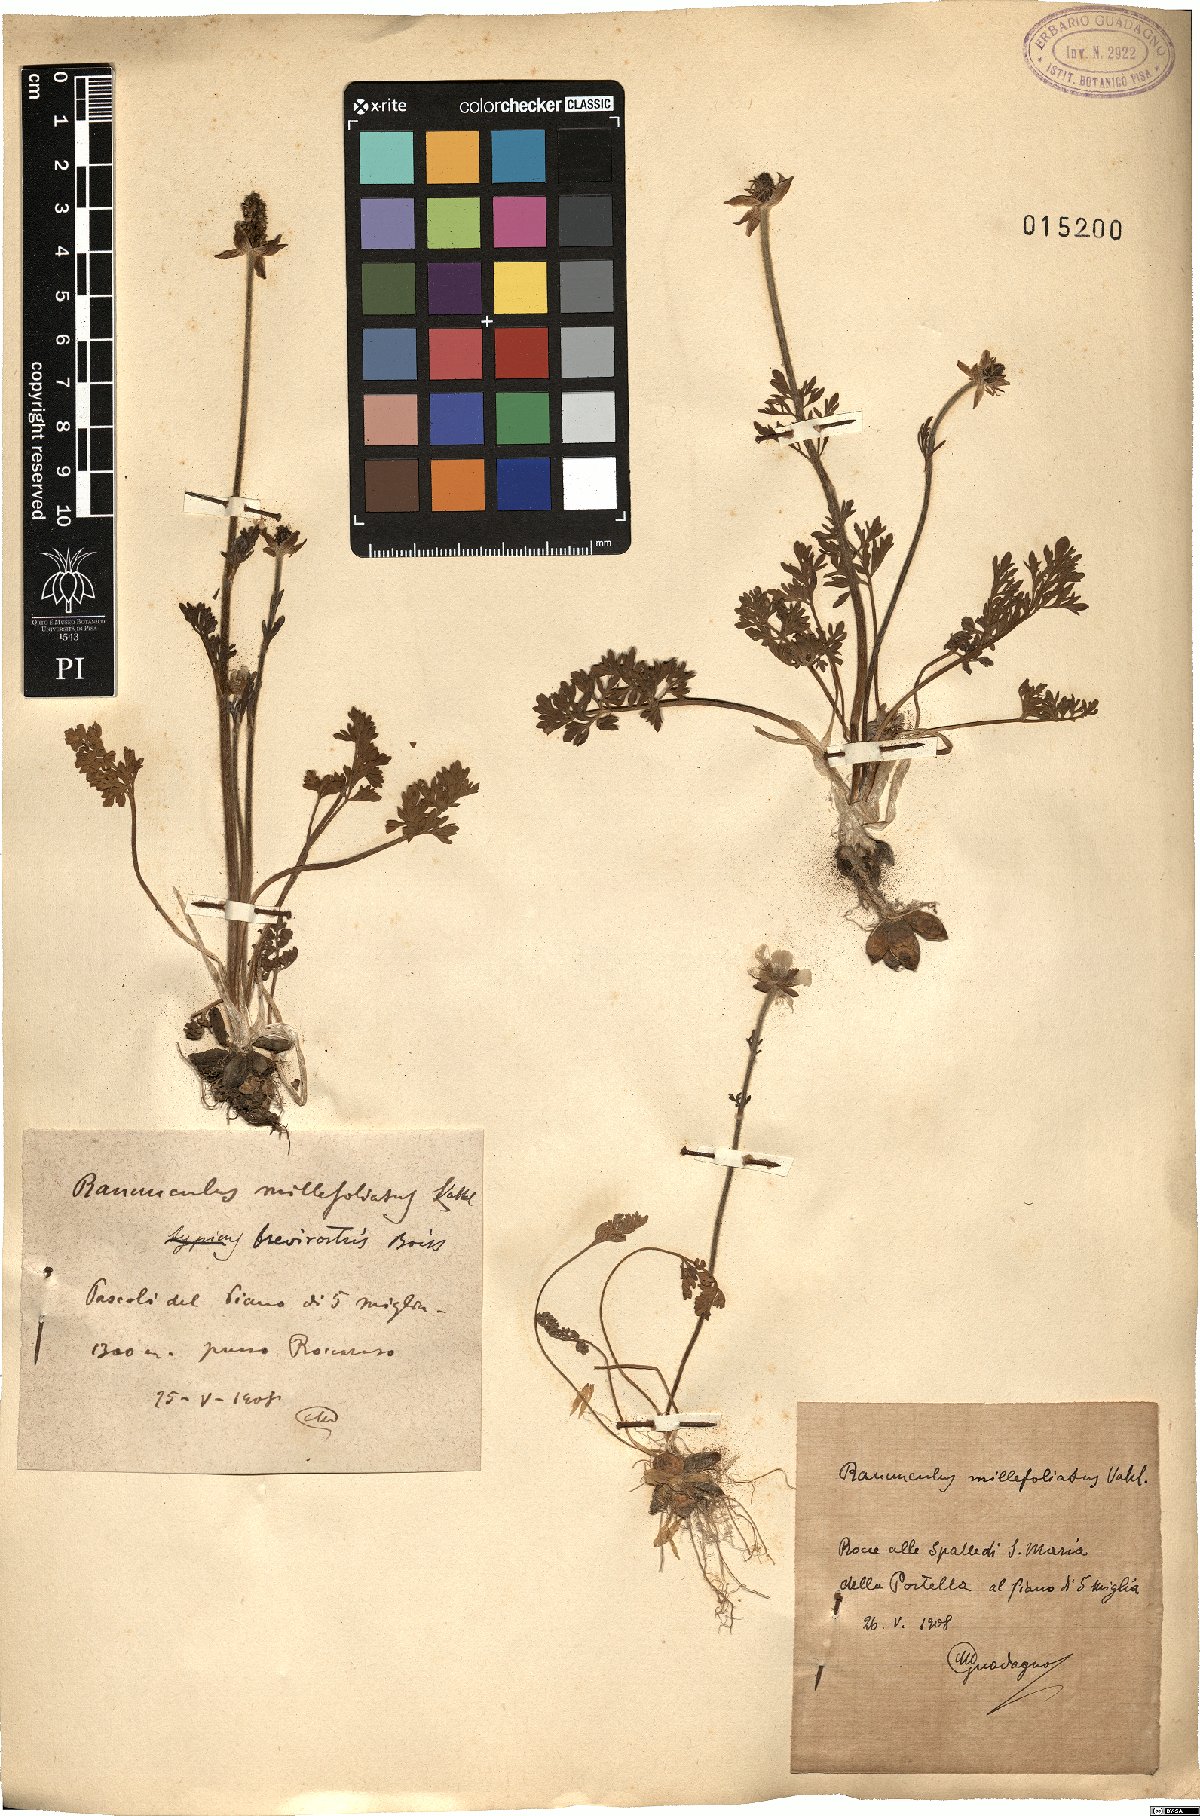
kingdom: Plantae
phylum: Tracheophyta
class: Magnoliopsida
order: Ranunculales
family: Ranunculaceae
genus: Ranunculus
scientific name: Ranunculus millefoliatus
